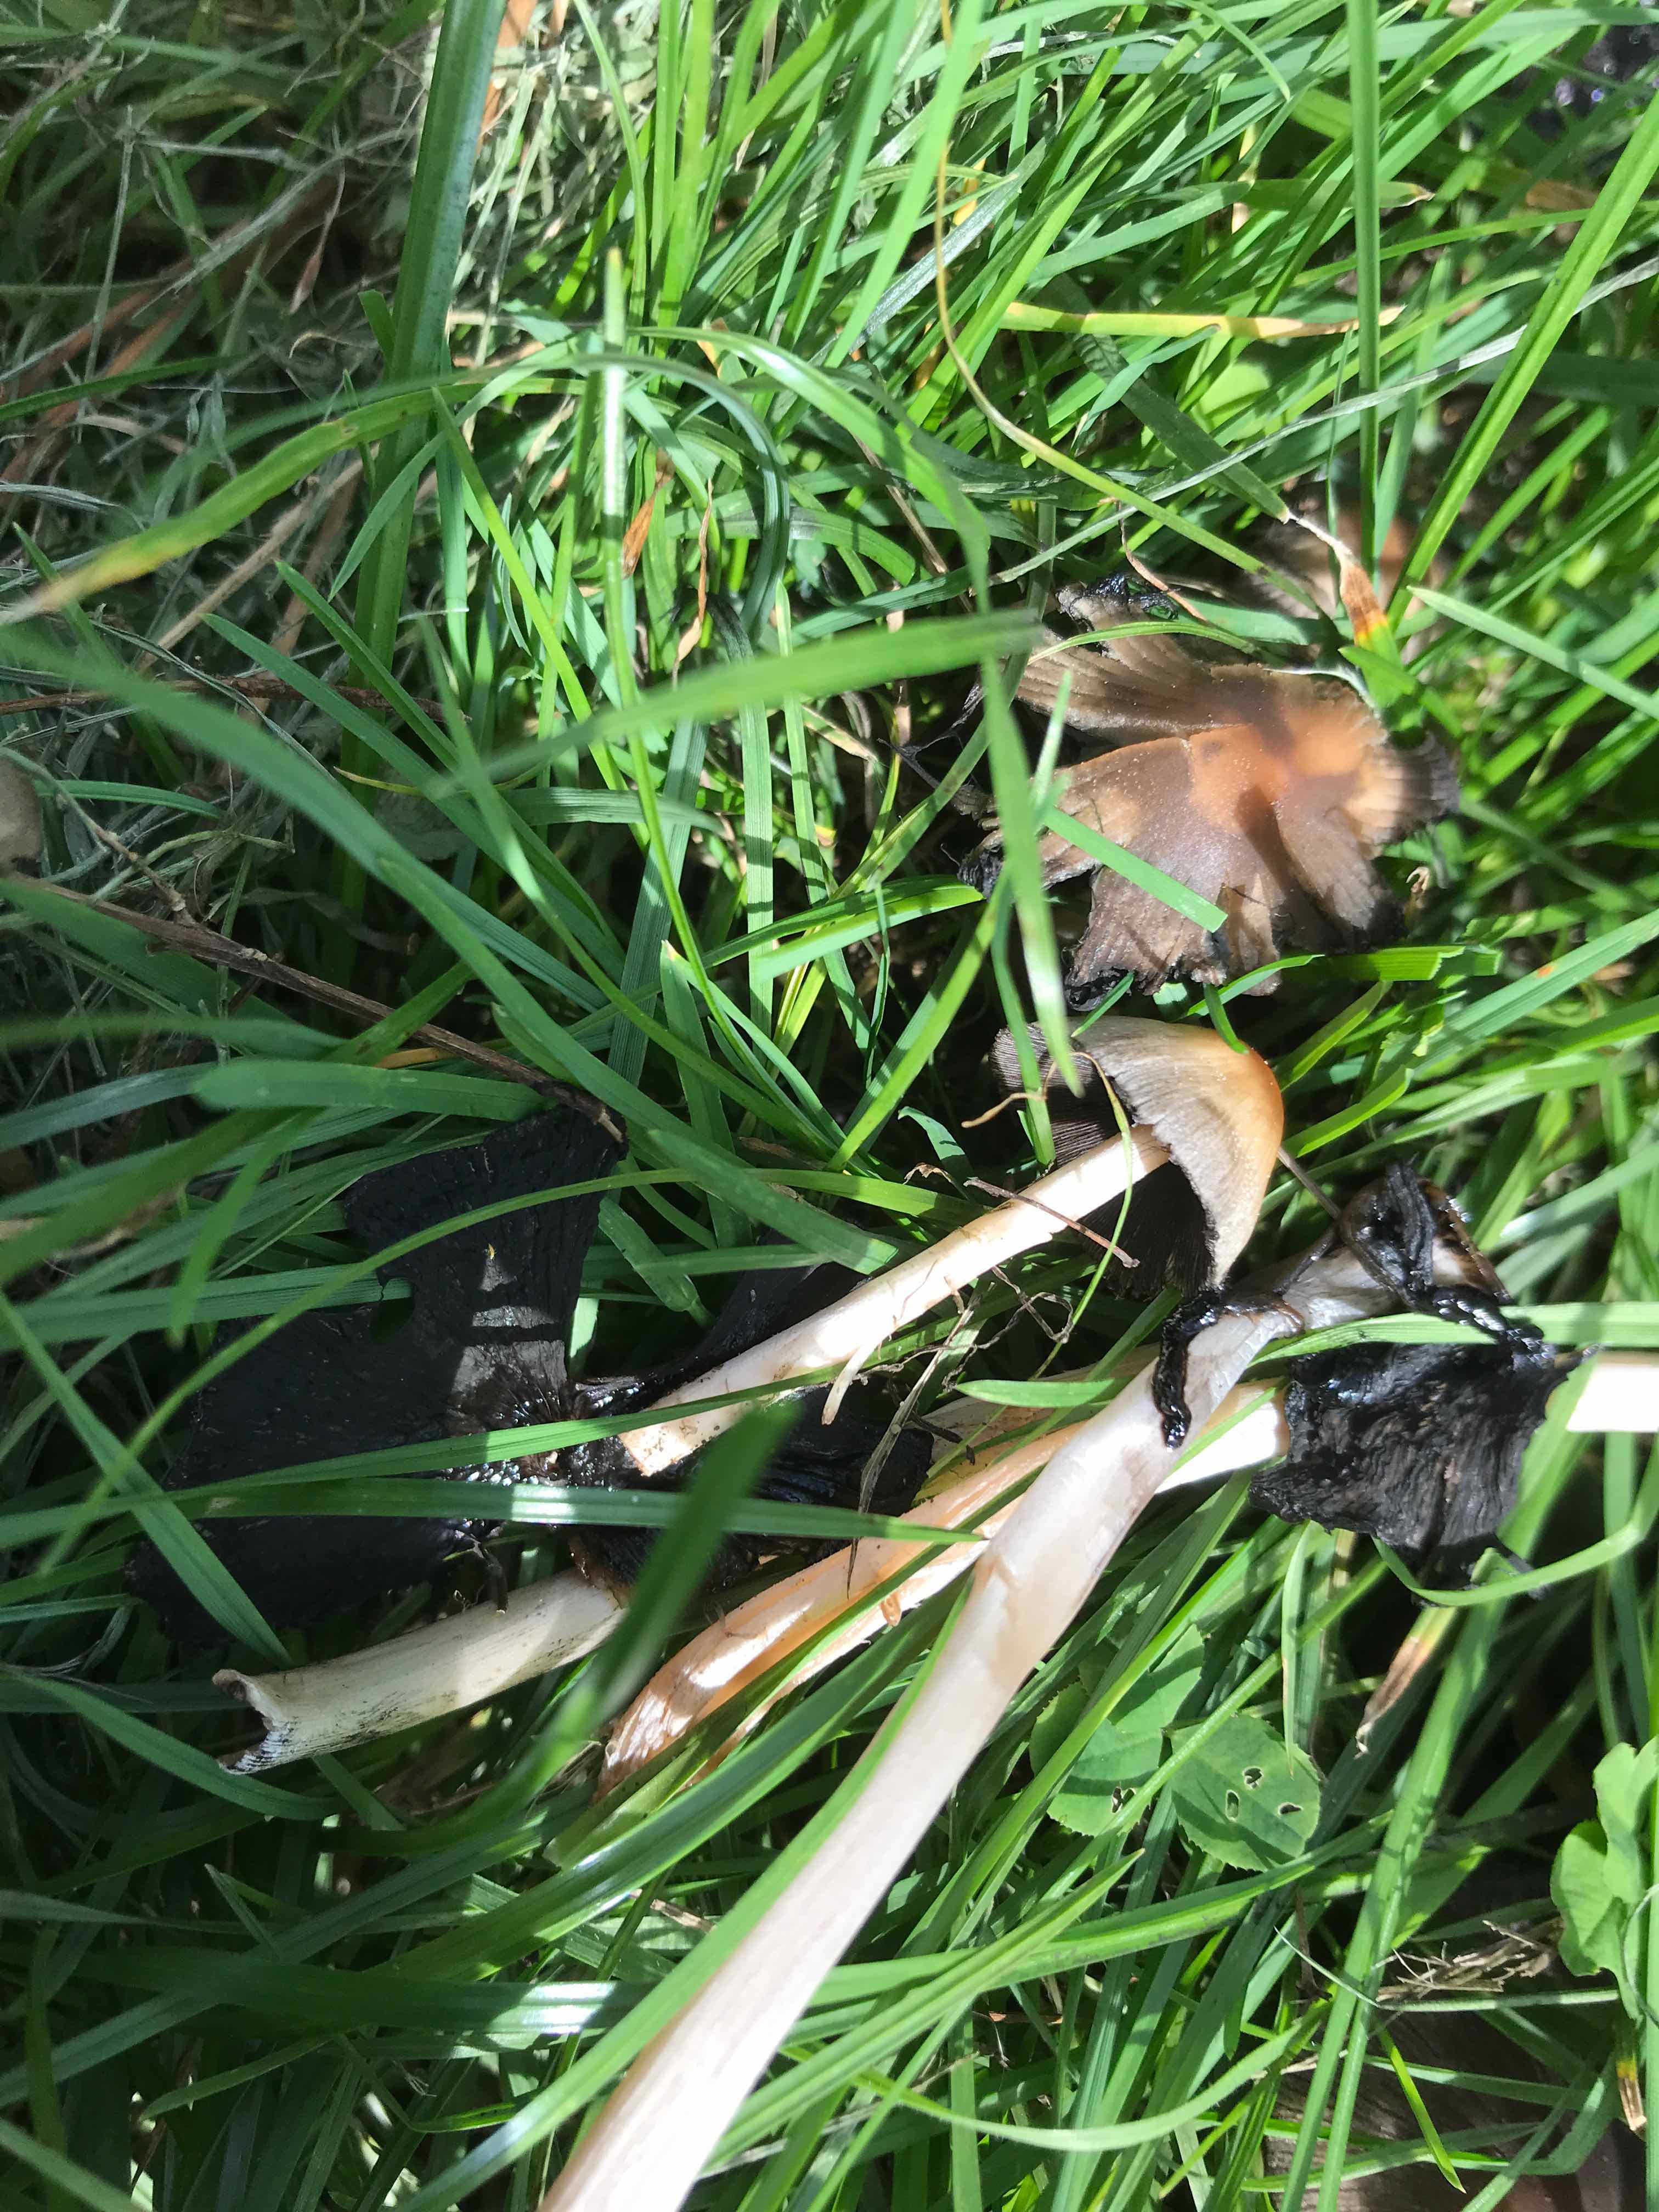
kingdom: Fungi
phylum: Basidiomycota
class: Agaricomycetes
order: Agaricales
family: Psathyrellaceae
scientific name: Psathyrellaceae
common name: mørkhatfamilien
